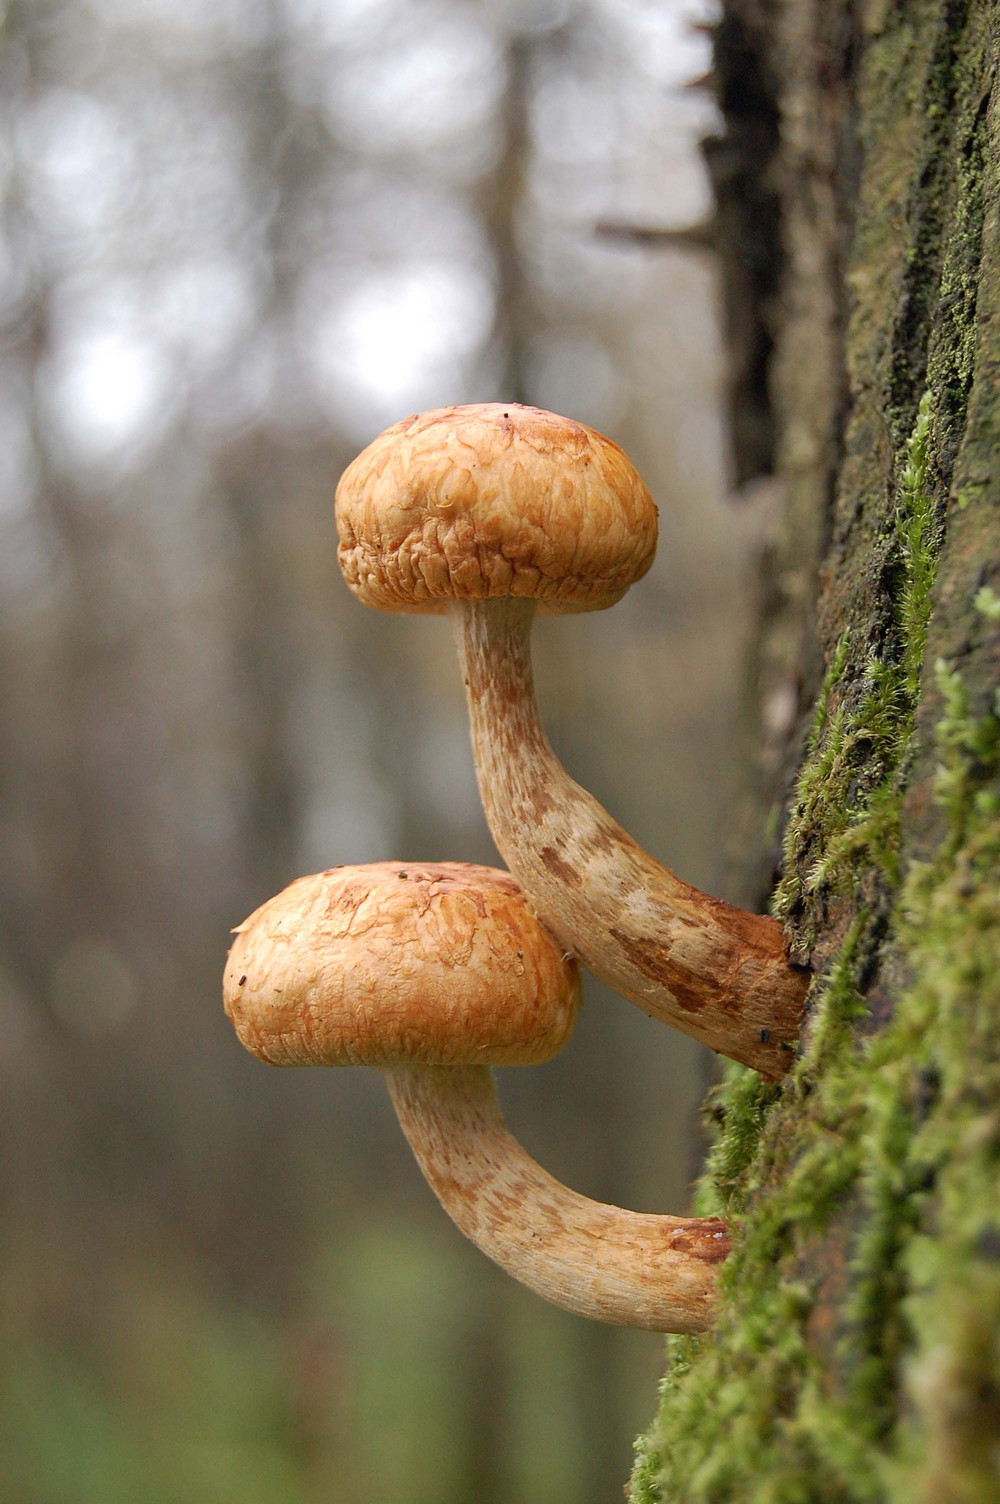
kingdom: Fungi
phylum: Basidiomycota
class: Agaricomycetes
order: Agaricales
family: Strophariaceae
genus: Pholiota
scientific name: Pholiota heteroclita
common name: duftende kæmpeskælhat
